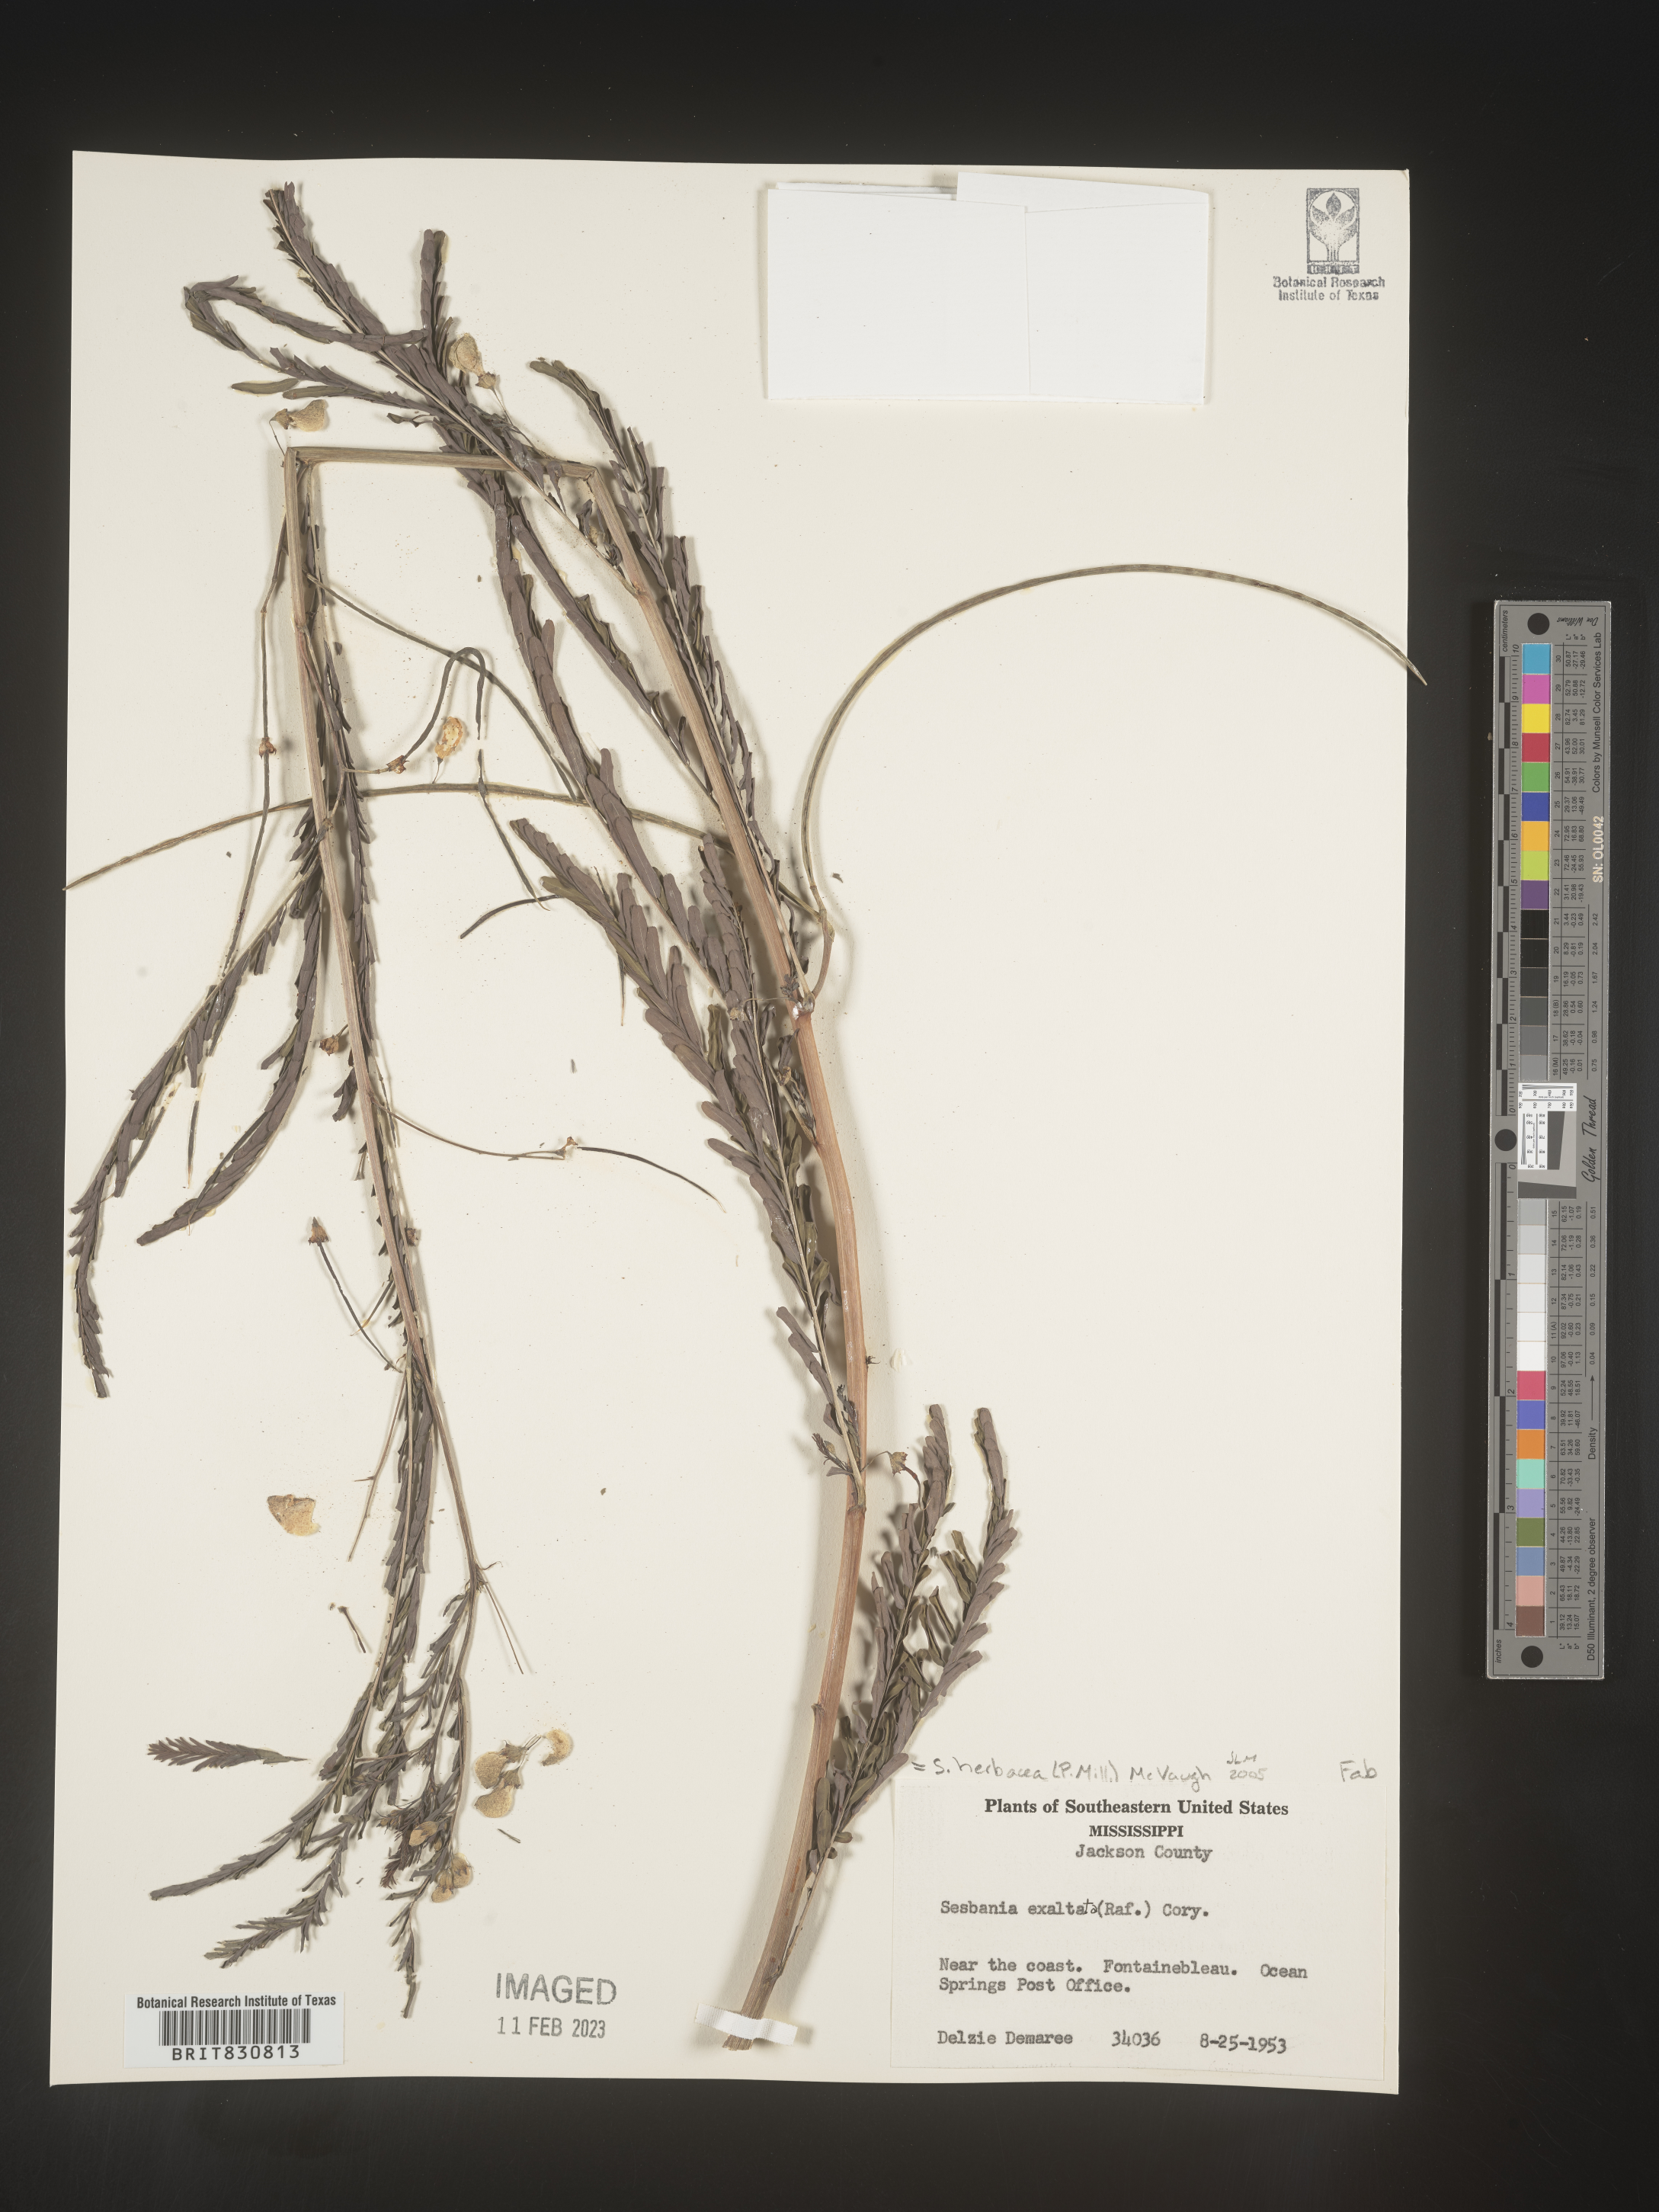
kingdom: Plantae
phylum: Tracheophyta
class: Magnoliopsida
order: Fabales
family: Fabaceae
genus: Sesbania
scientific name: Sesbania herbacea
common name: Bigpod sesbania
